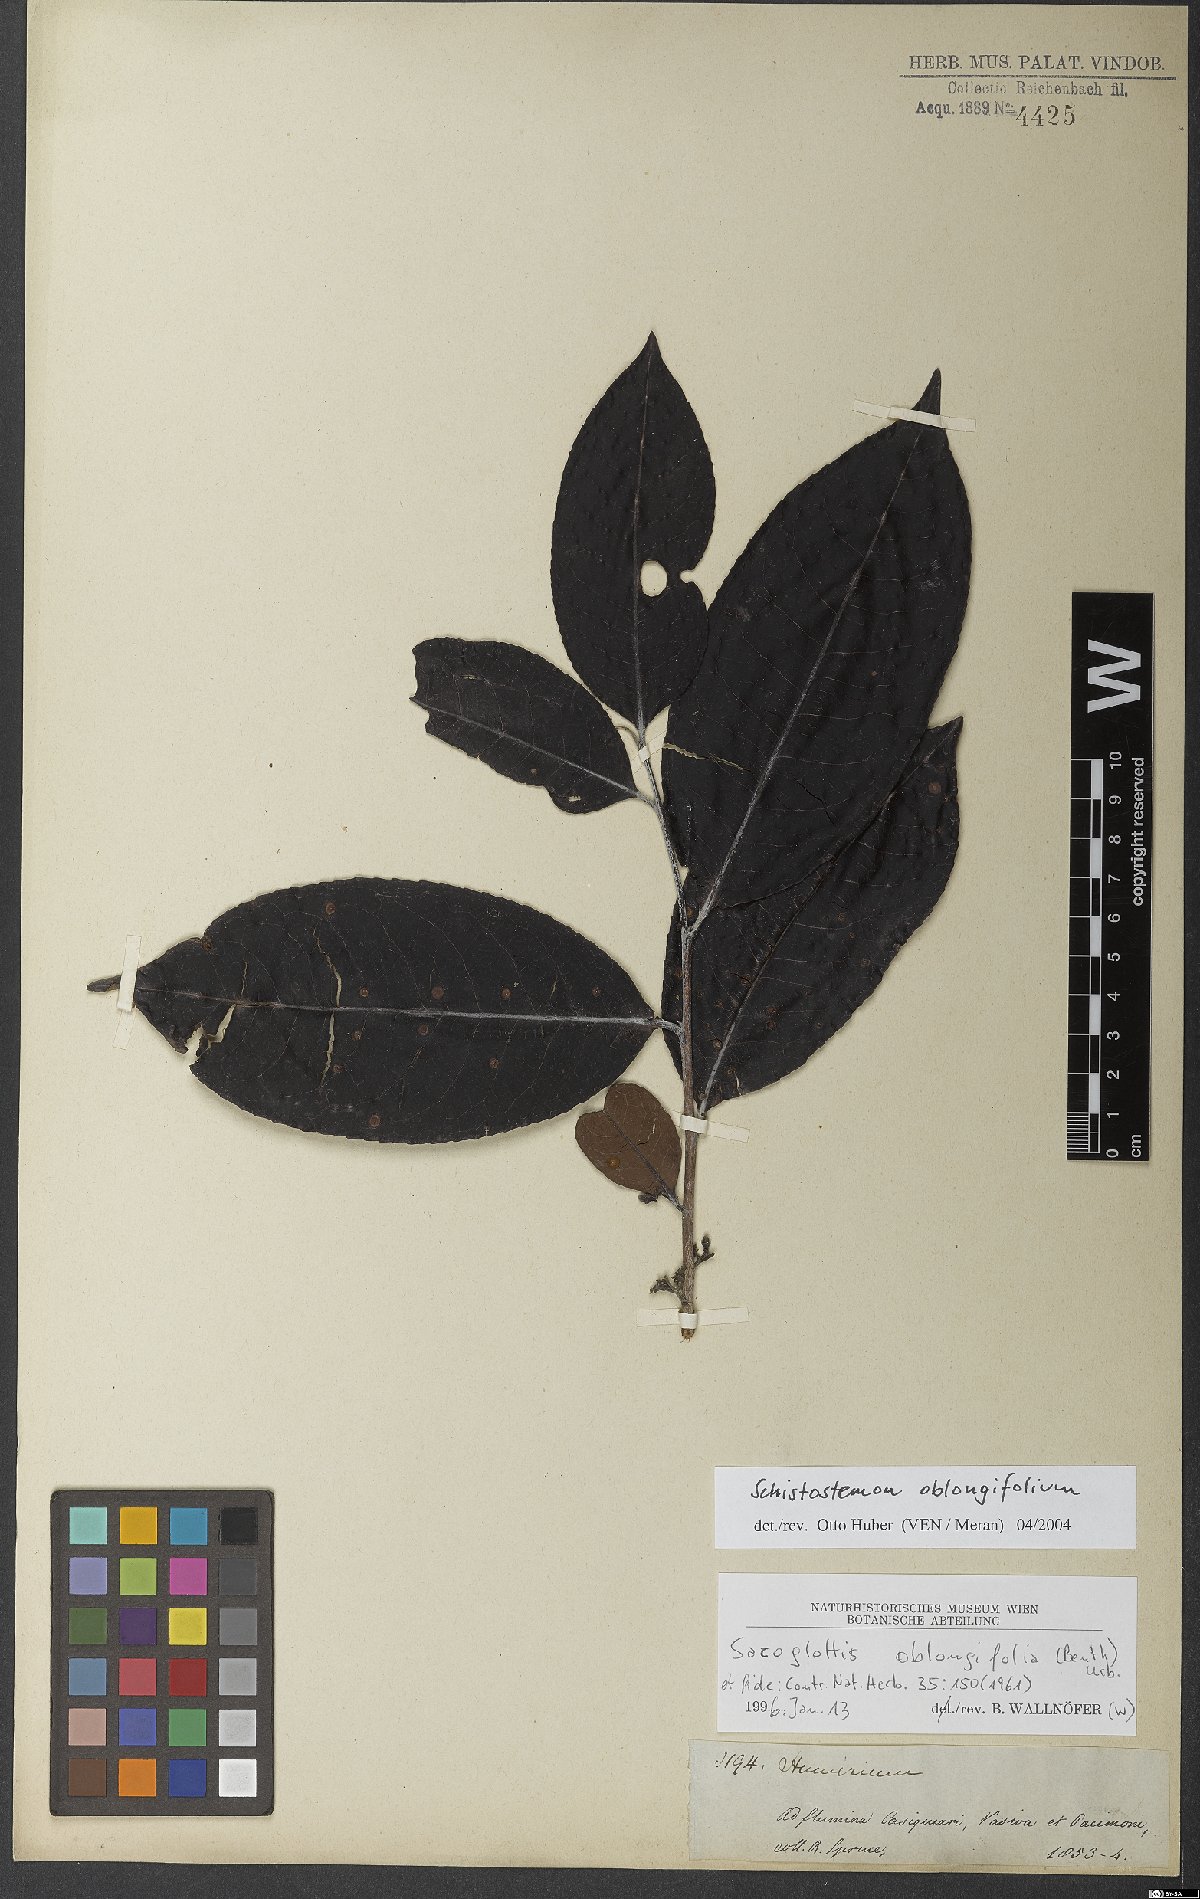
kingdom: Plantae
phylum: Tracheophyta
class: Magnoliopsida
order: Malpighiales
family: Humiriaceae
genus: Schistostemon
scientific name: Schistostemon oblongifolium
